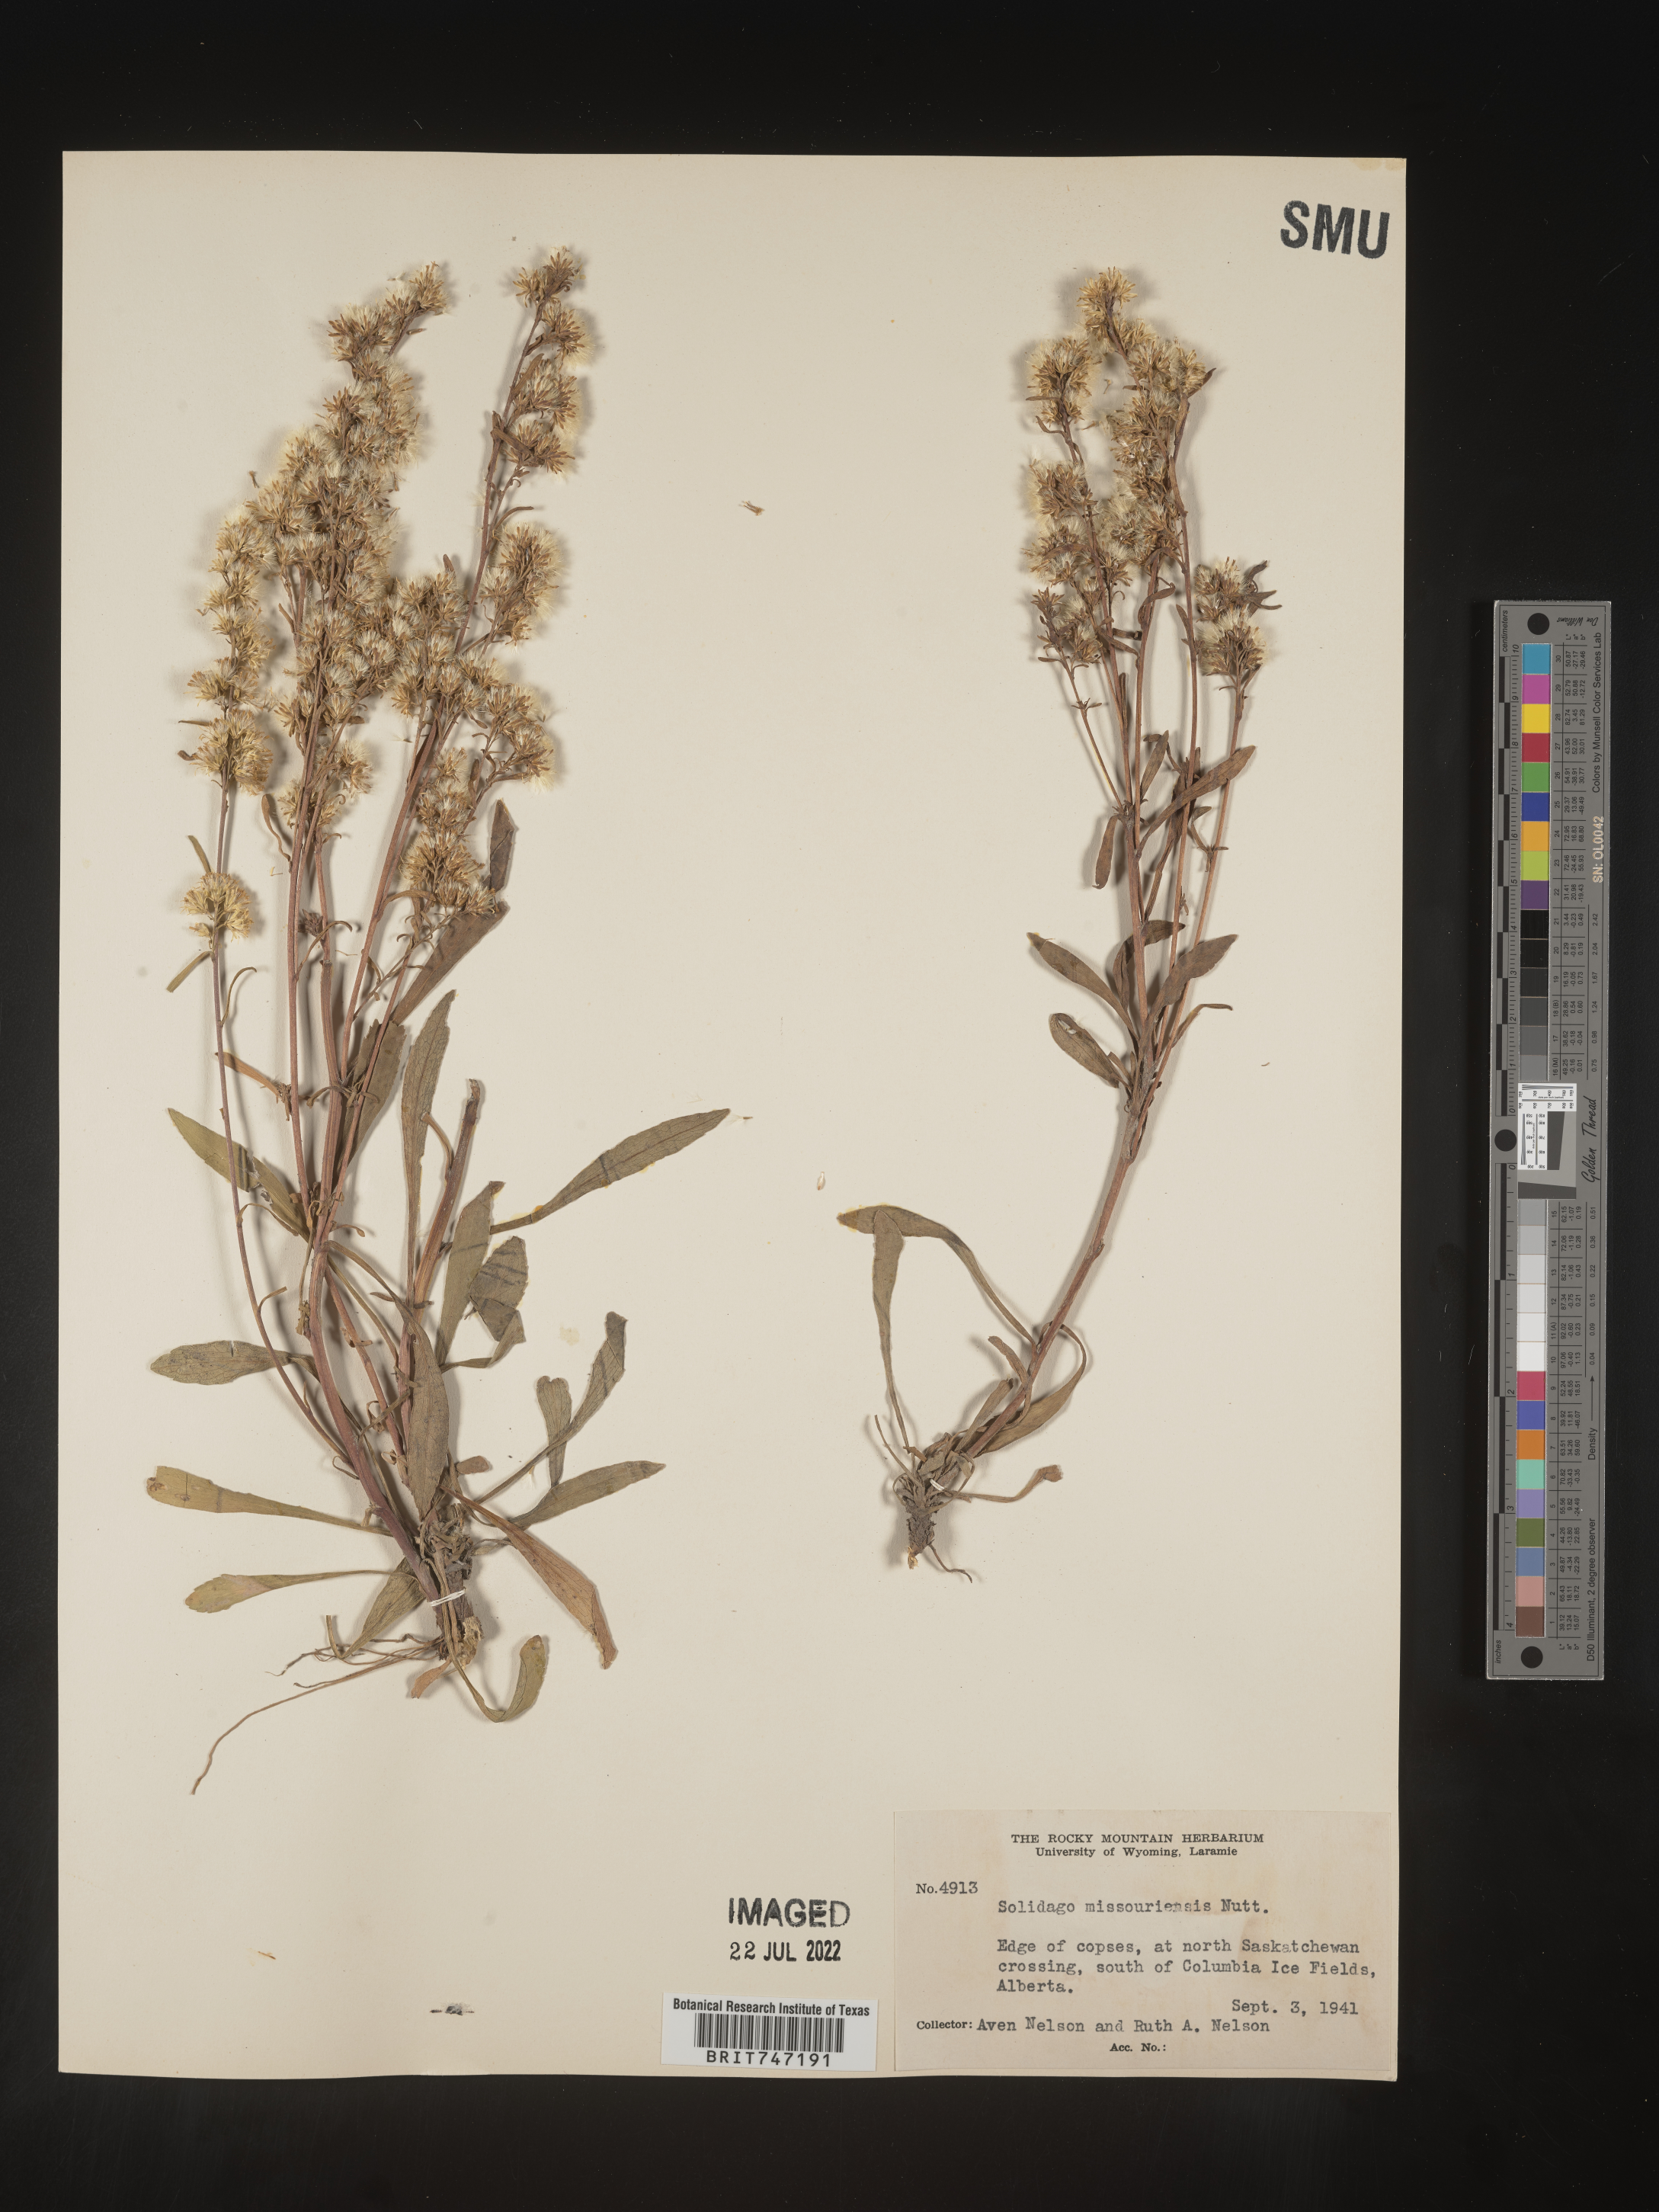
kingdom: Plantae
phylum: Tracheophyta
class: Magnoliopsida
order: Asterales
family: Asteraceae
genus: Solidago
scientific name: Solidago missouriensis
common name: Prairie goldenrod
